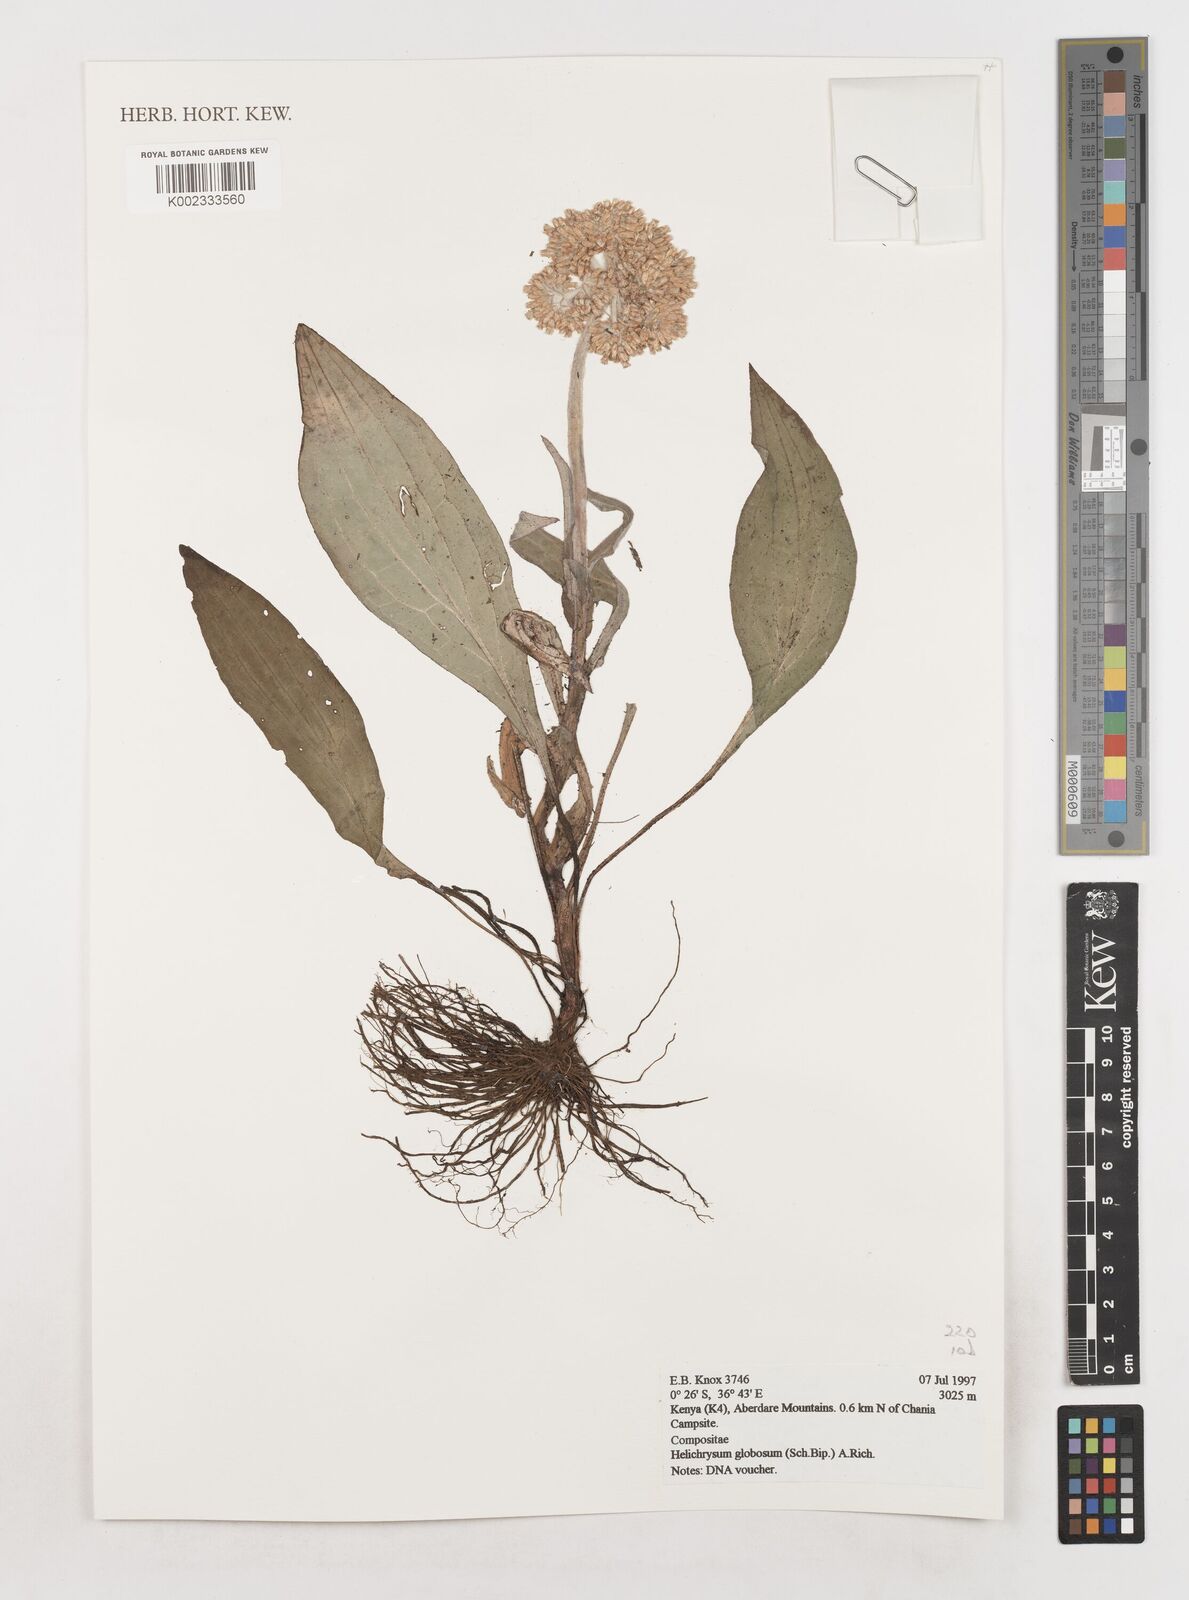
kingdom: Plantae
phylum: Tracheophyta
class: Magnoliopsida
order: Asterales
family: Asteraceae
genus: Helichrysum
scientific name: Helichrysum globosum
